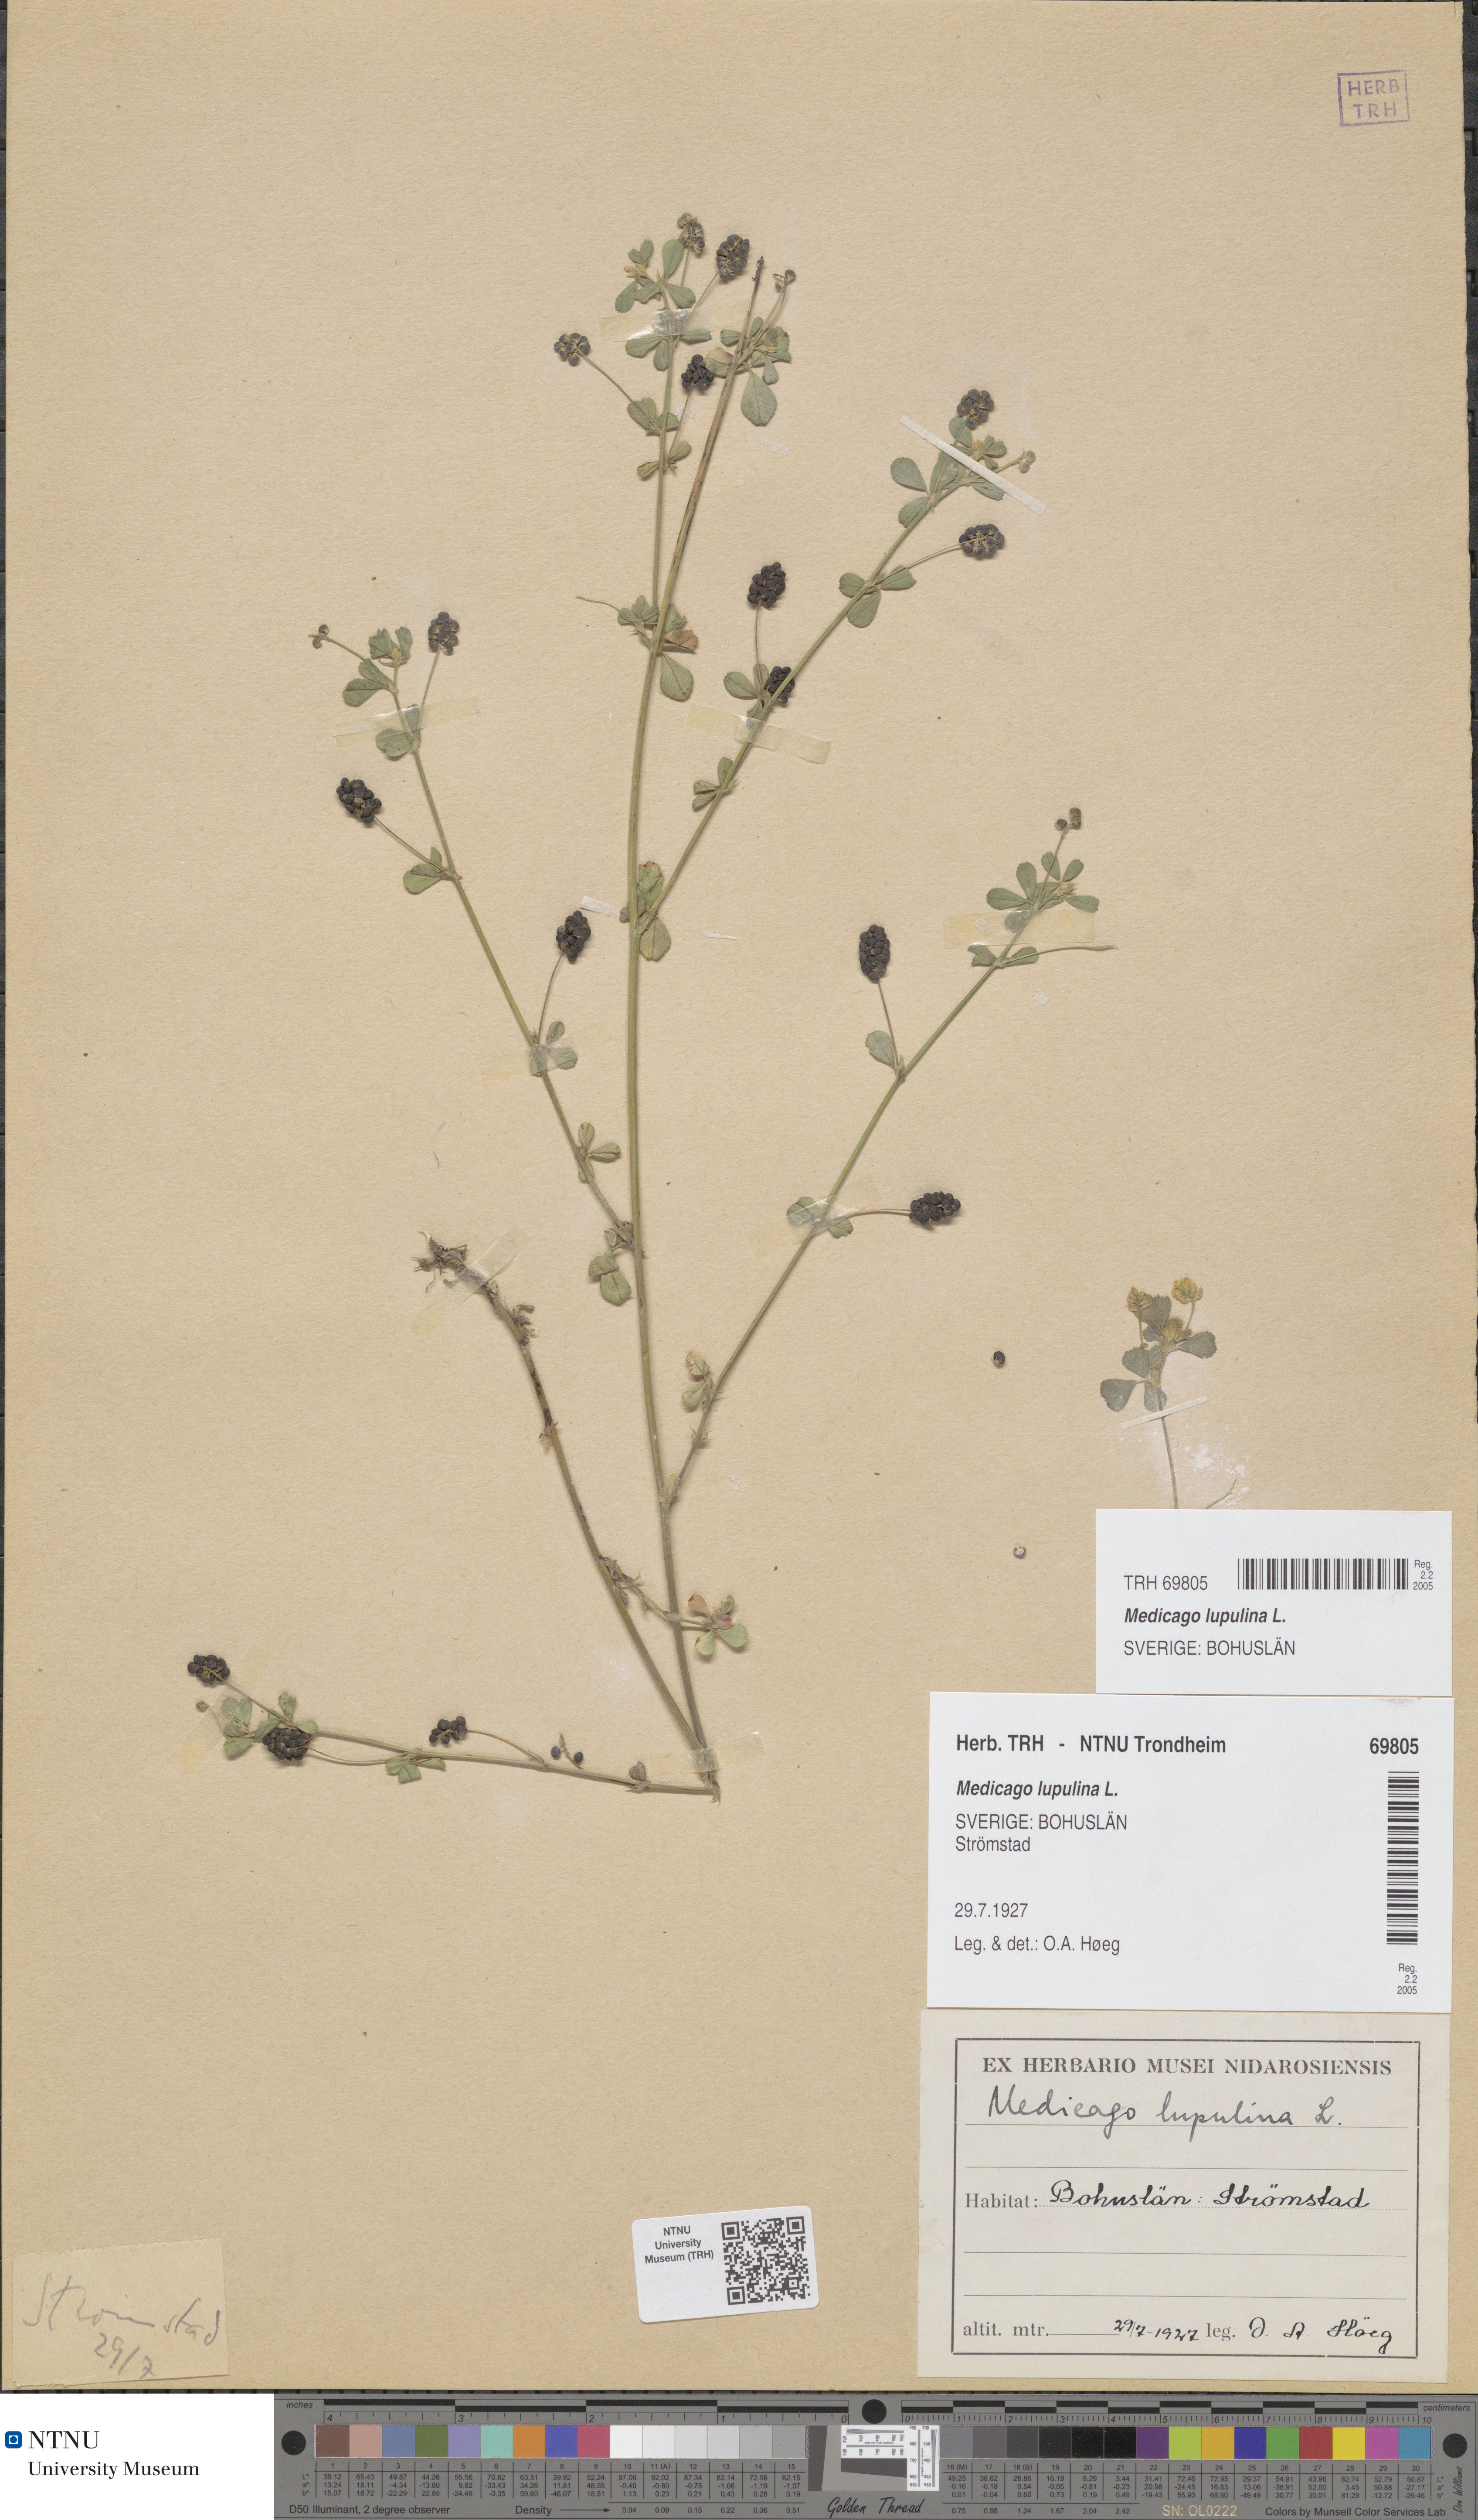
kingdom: Plantae
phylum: Tracheophyta
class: Magnoliopsida
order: Fabales
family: Fabaceae
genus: Medicago
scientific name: Medicago lupulina
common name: Black medick
